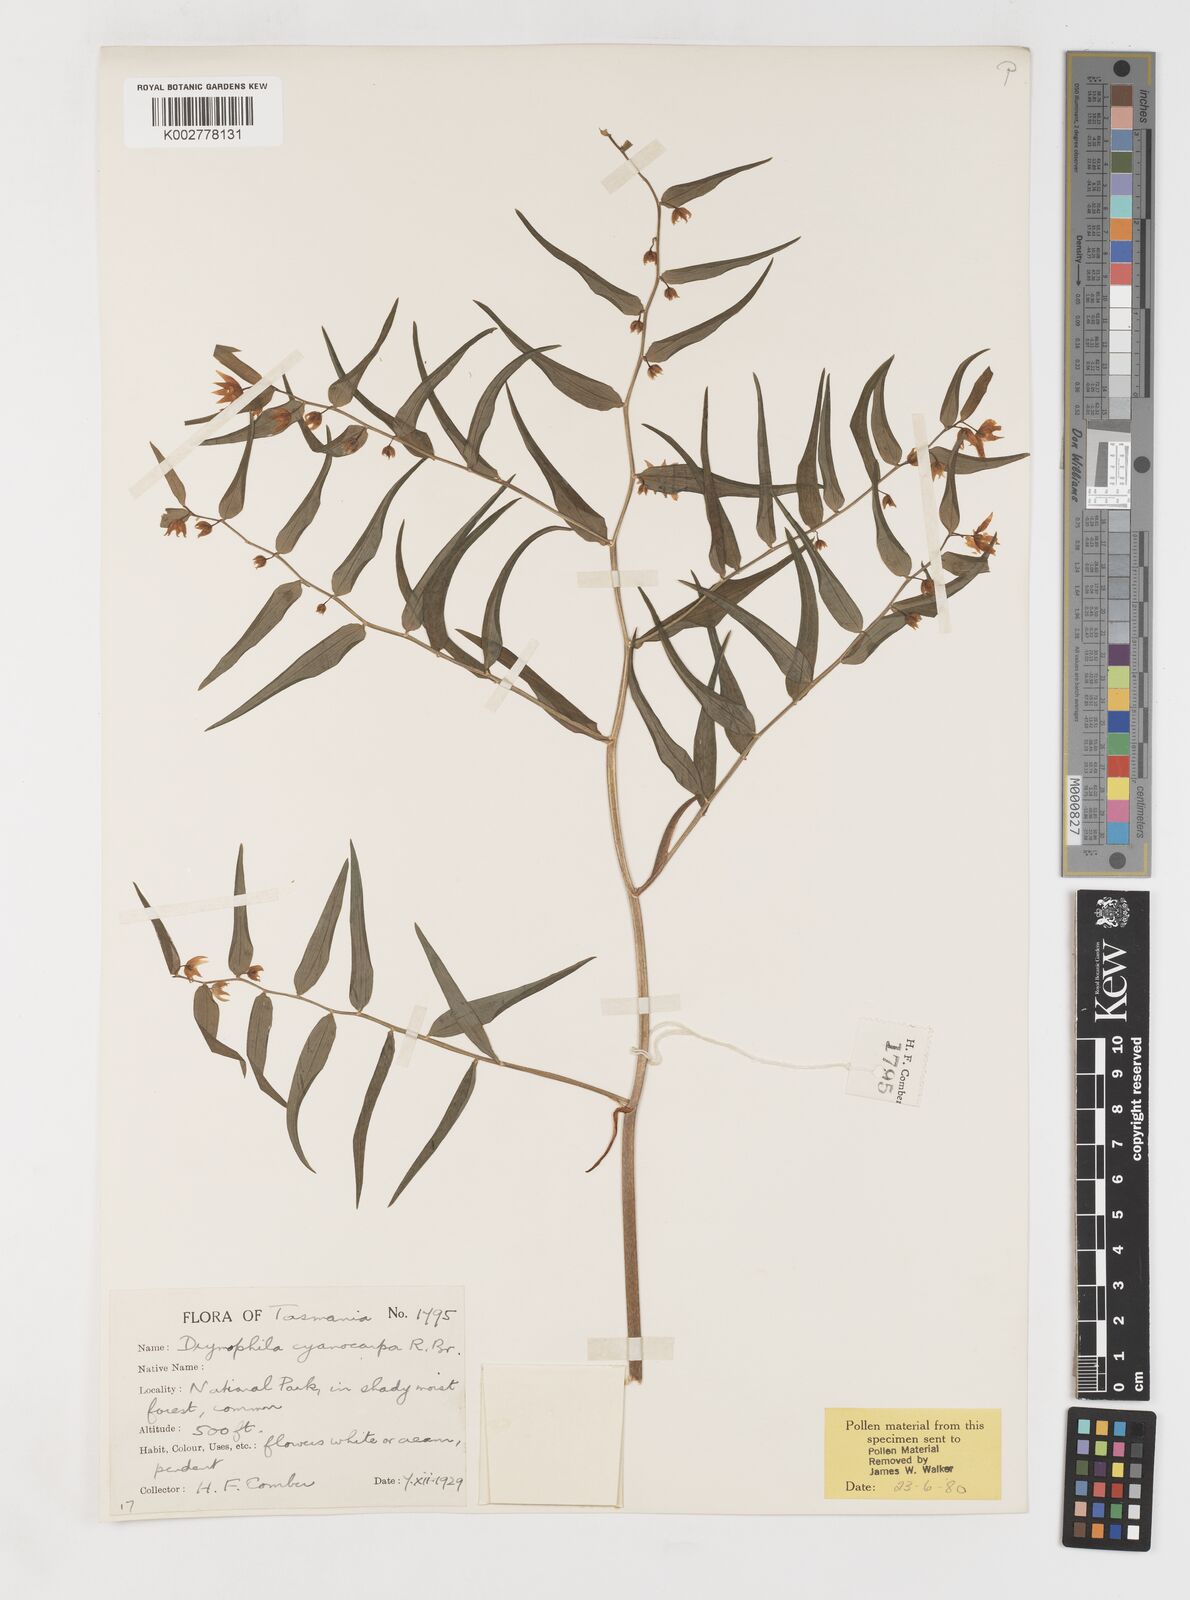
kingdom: Plantae
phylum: Tracheophyta
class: Liliopsida
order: Liliales
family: Alstroemeriaceae
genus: Drymophila
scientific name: Drymophila cyanocarpa
